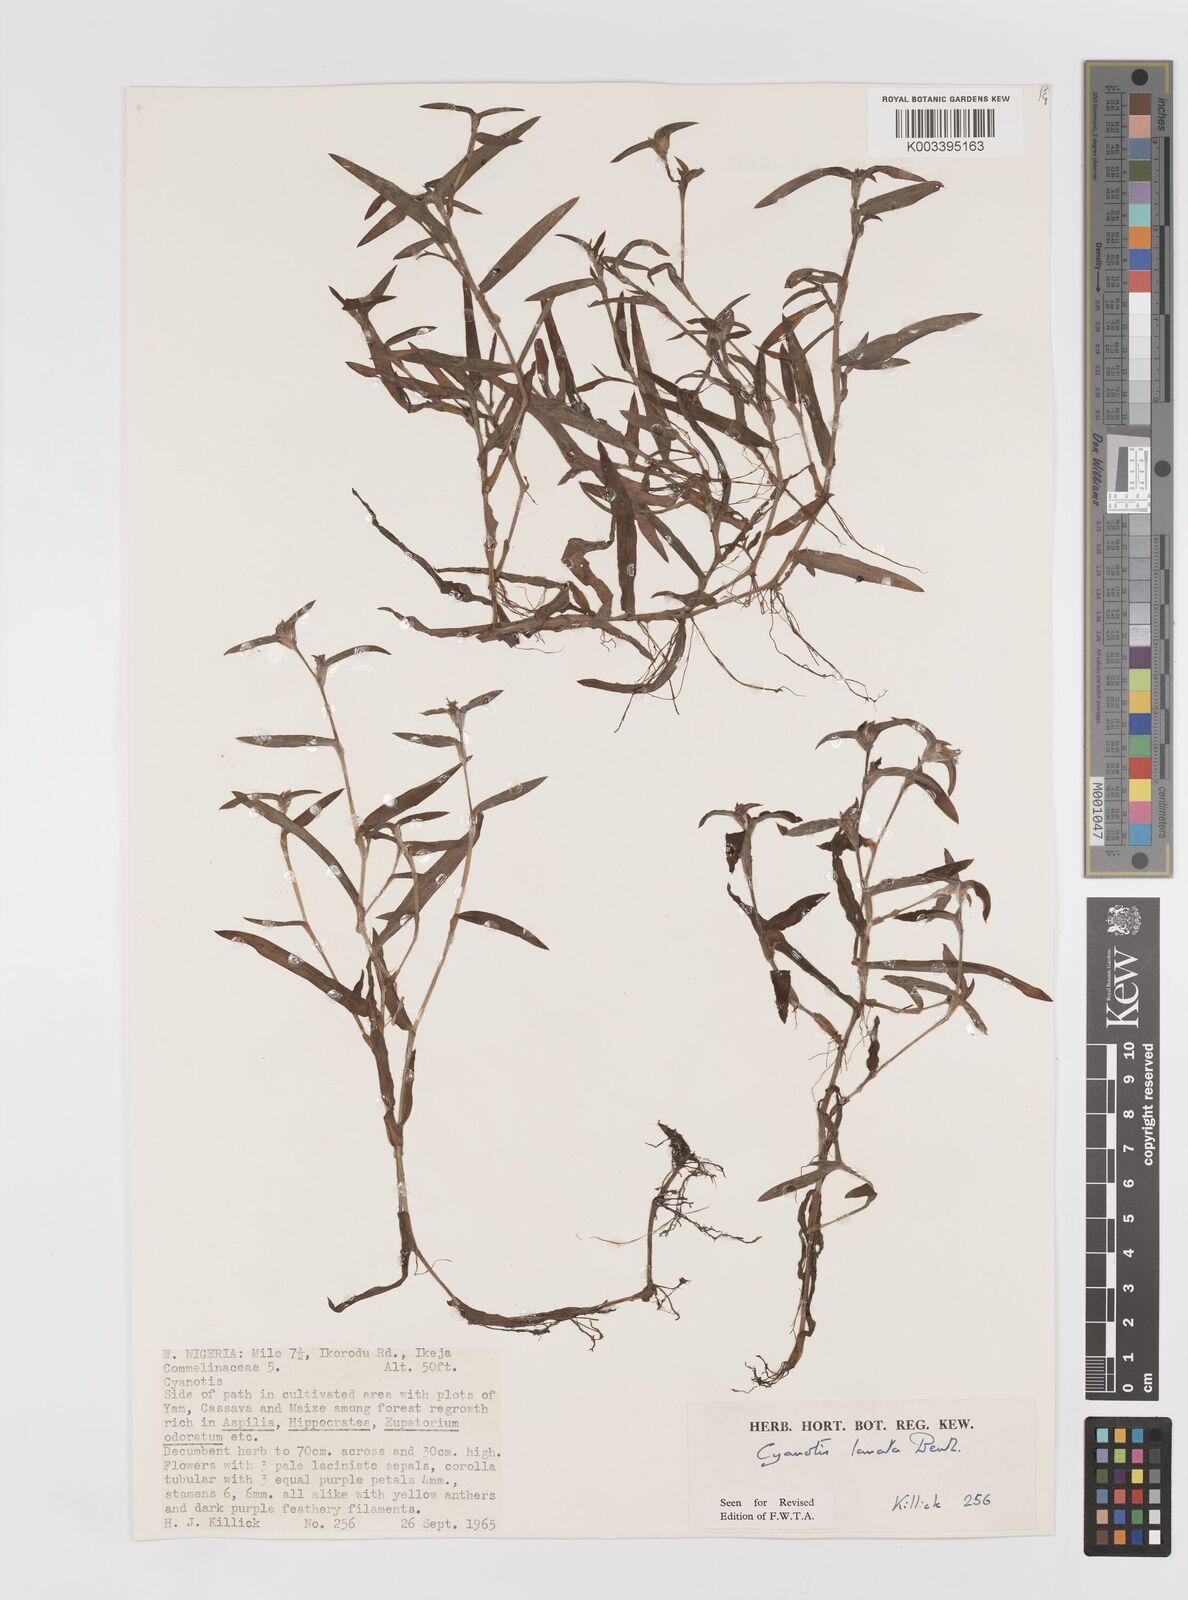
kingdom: Plantae
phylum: Tracheophyta
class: Liliopsida
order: Commelinales
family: Commelinaceae
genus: Cyanotis
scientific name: Cyanotis lanata
